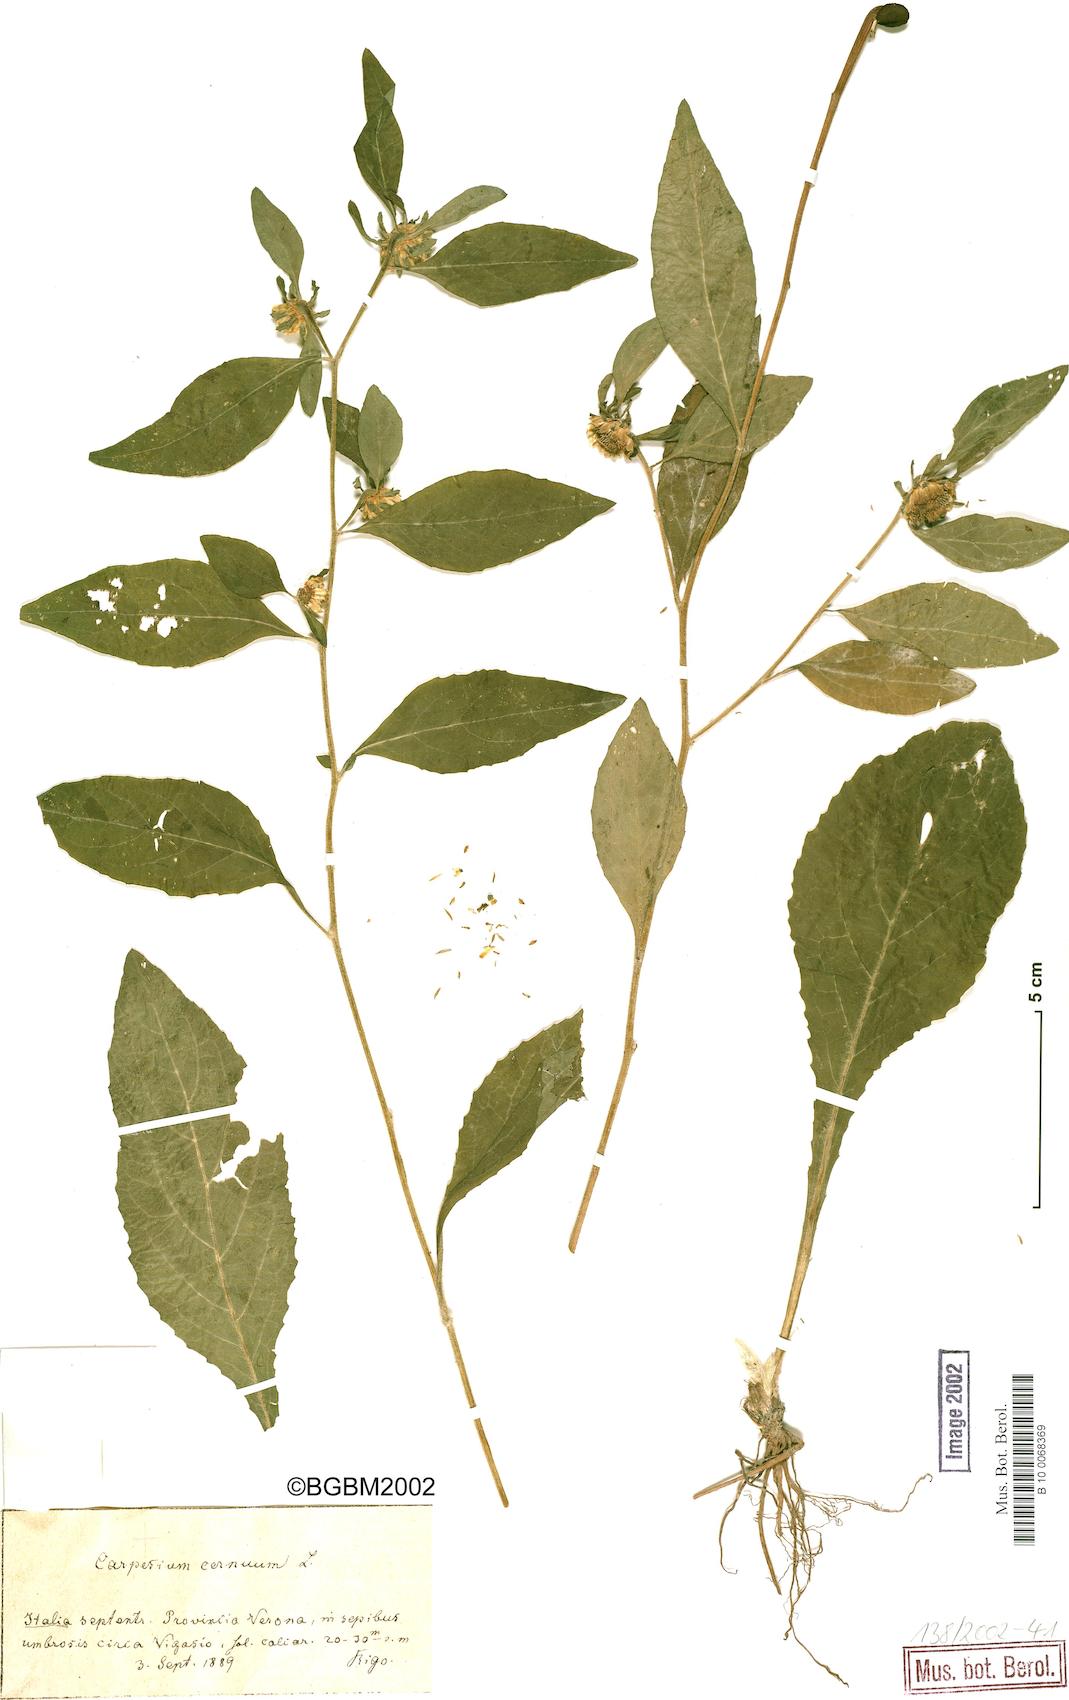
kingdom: Plantae
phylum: Tracheophyta
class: Magnoliopsida
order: Asterales
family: Asteraceae
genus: Carpesium
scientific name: Carpesium cernuum
